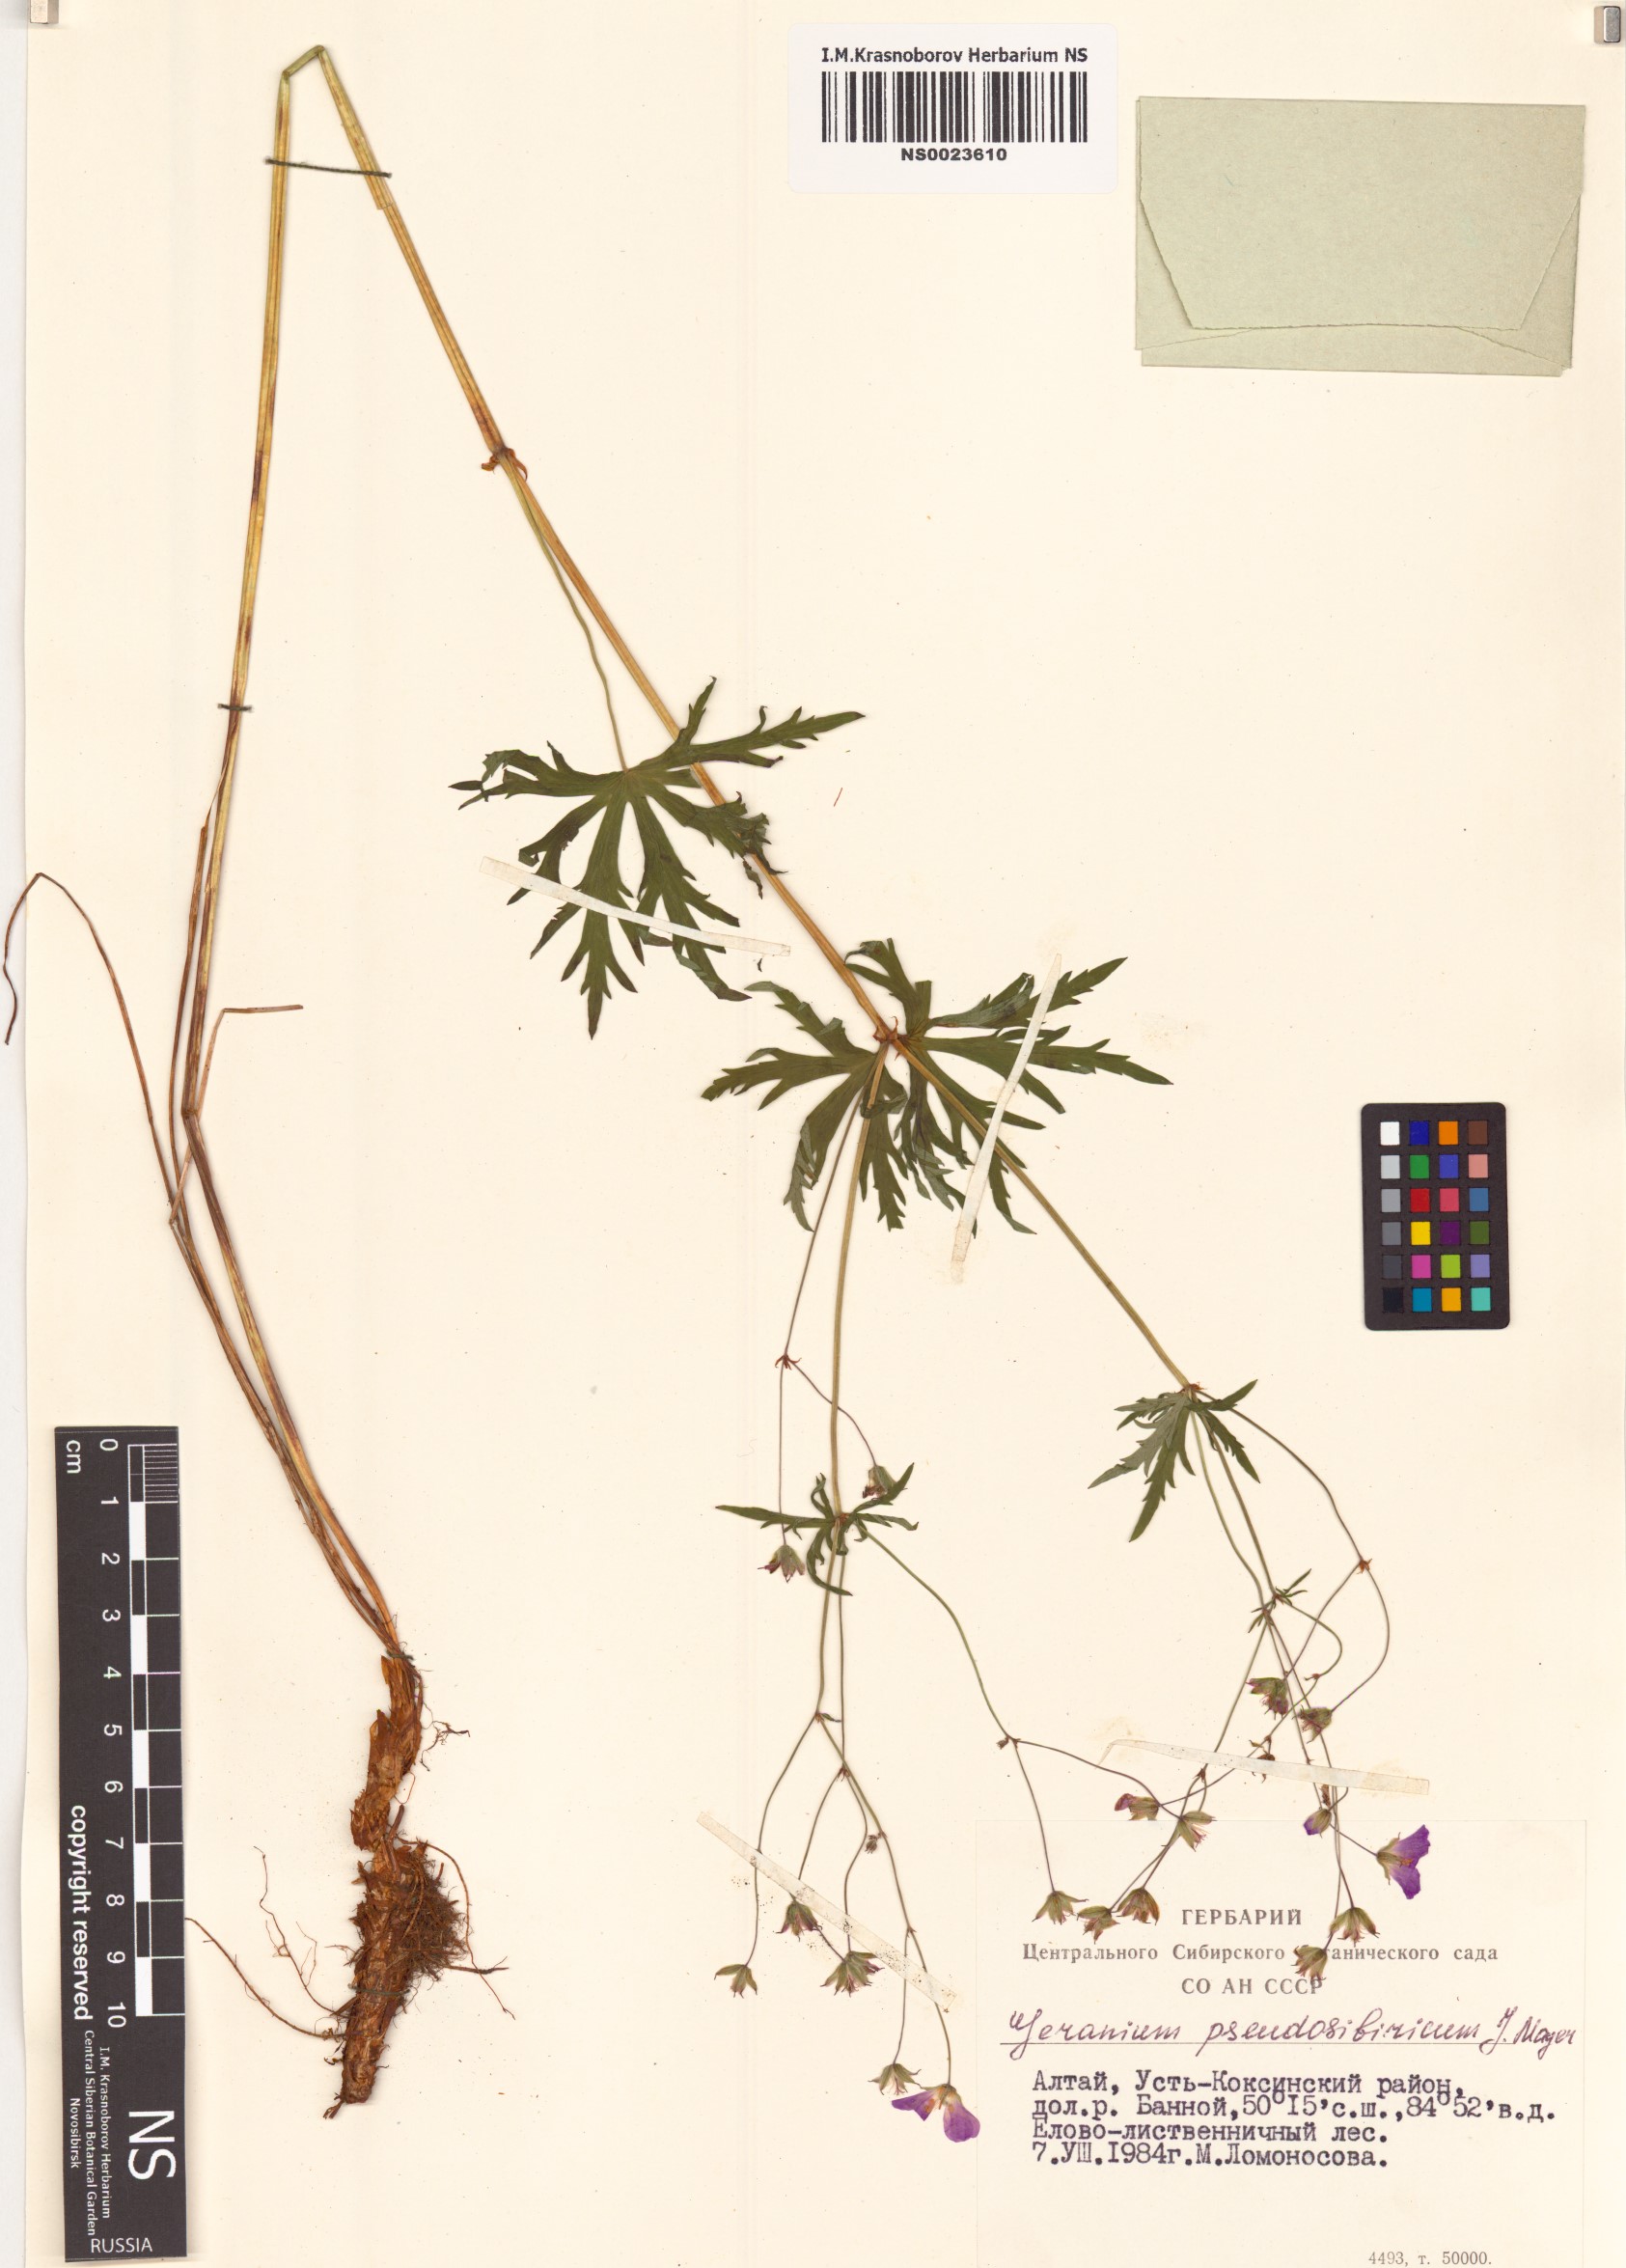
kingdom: Plantae
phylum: Tracheophyta
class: Magnoliopsida
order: Geraniales
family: Geraniaceae
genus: Geranium
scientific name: Geranium pseudosibiricum
